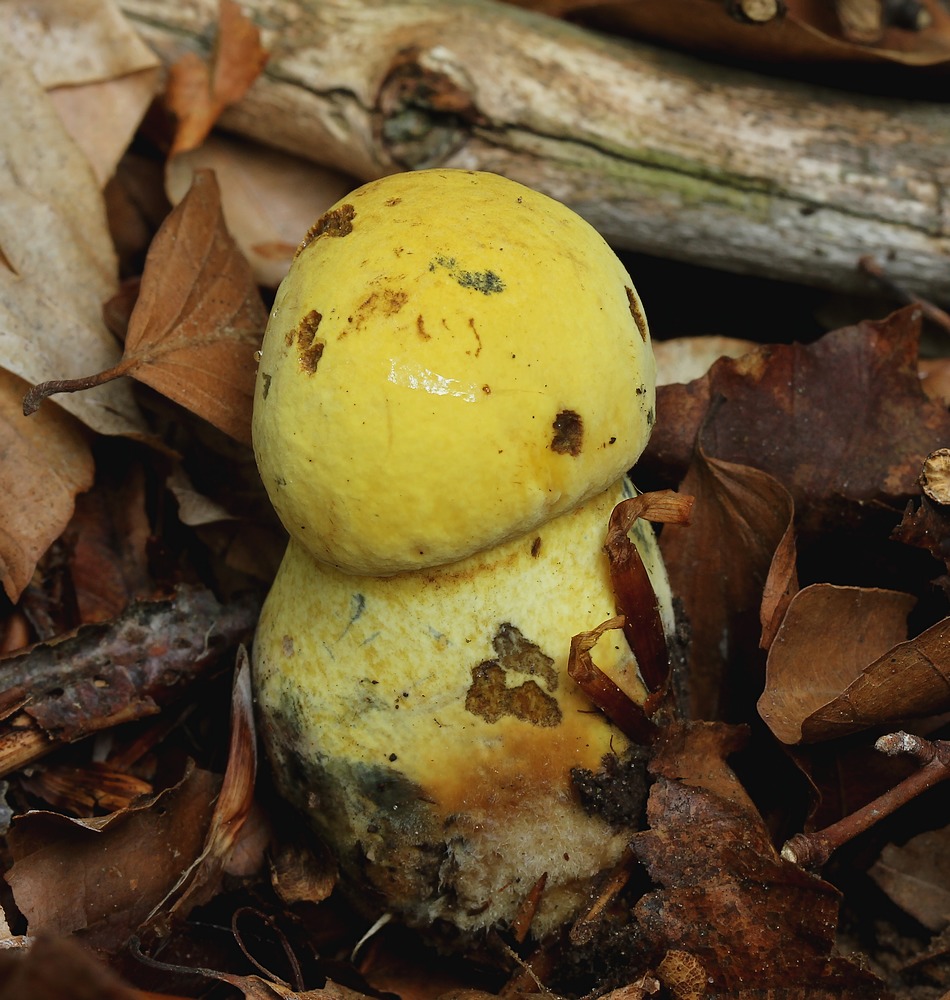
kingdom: Fungi
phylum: Basidiomycota
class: Agaricomycetes
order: Boletales
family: Boletaceae
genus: Neoboletus
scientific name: Neoboletus praestigiator
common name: gul indigorørhat
